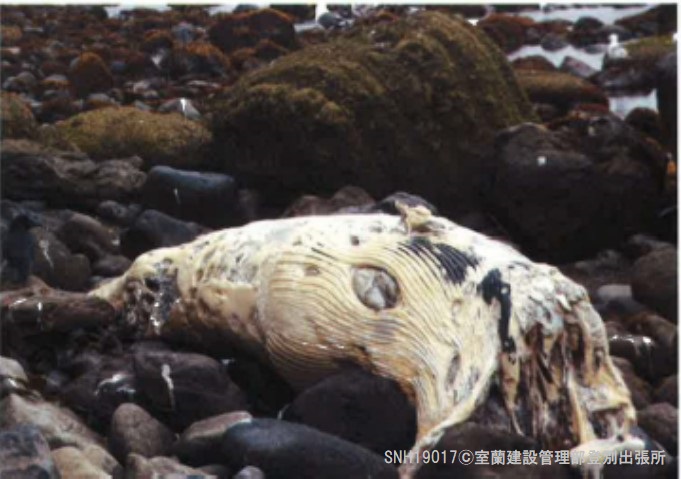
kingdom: Animalia
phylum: Chordata
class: Mammalia
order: Cetacea
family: Balaenopteridae
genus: Balaenoptera
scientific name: Balaenoptera acutorostrata
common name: Minke whale
